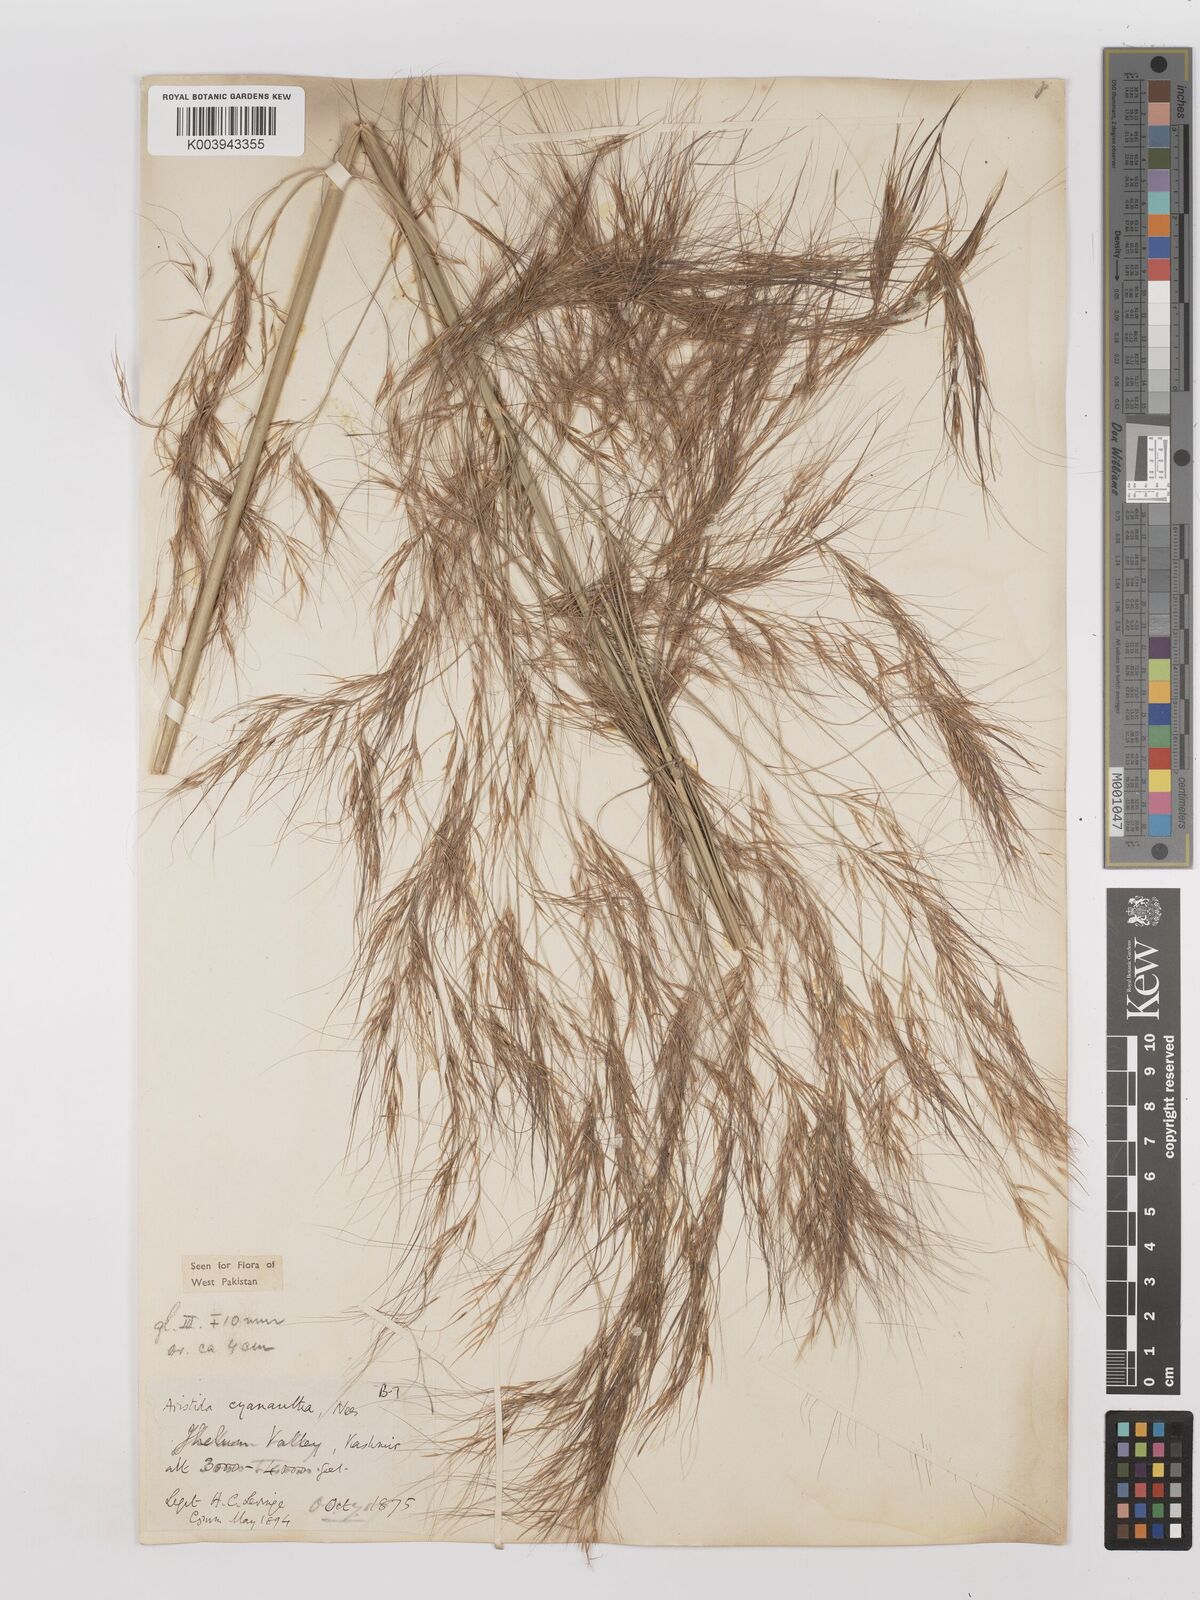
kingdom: Plantae
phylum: Tracheophyta
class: Liliopsida
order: Poales
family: Poaceae
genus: Aristida
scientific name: Aristida cyanantha
